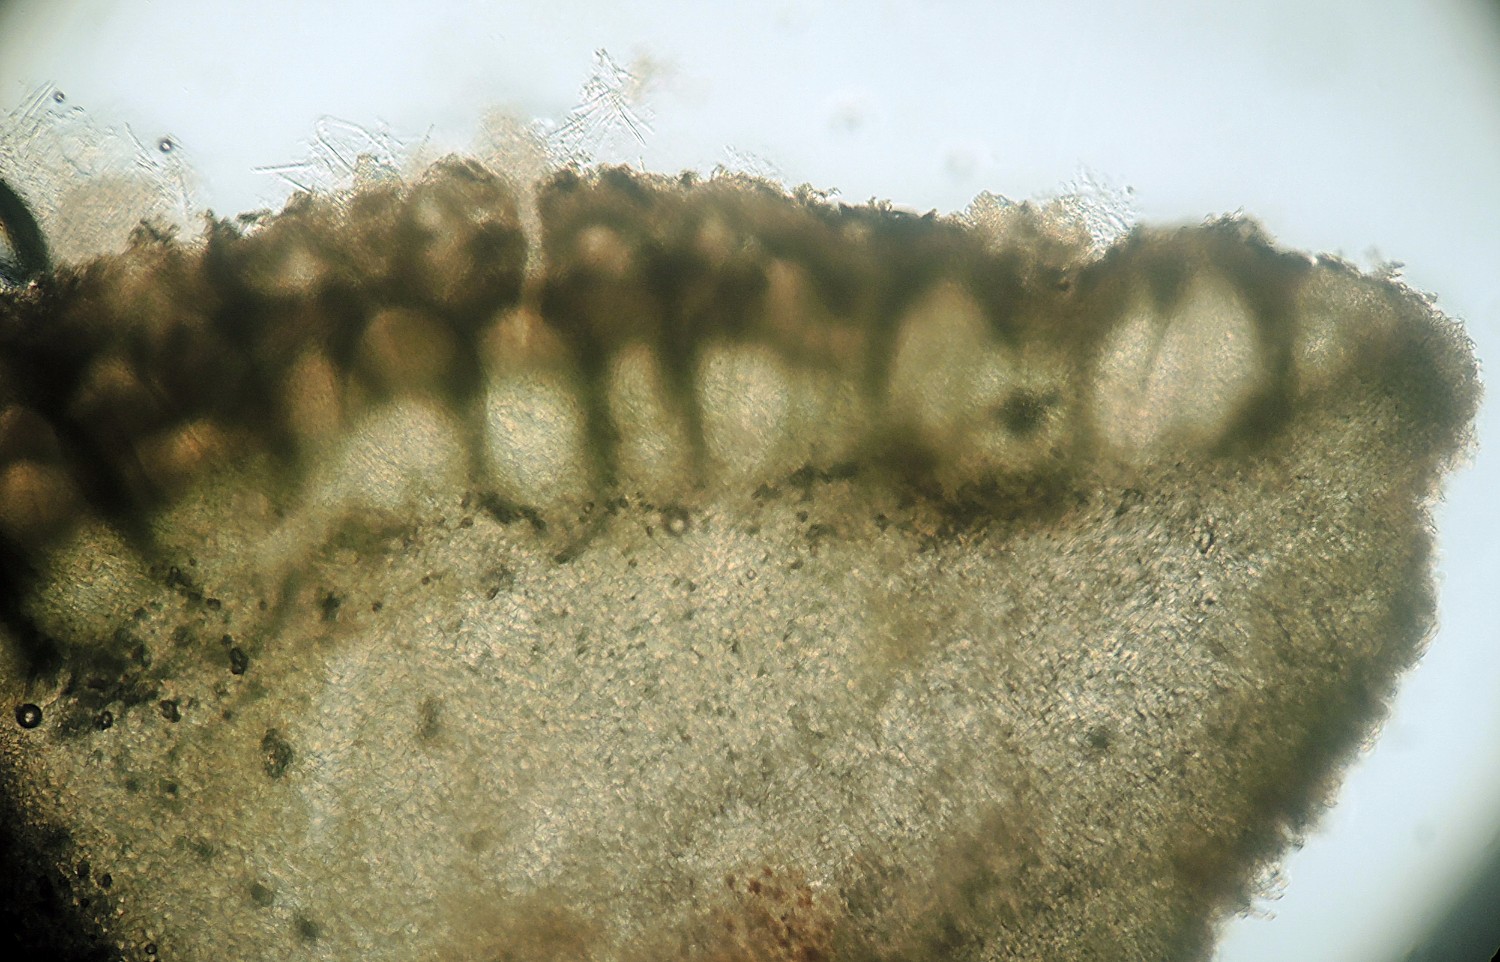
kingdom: Fungi
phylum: Ascomycota
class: Sordariomycetes
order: Hypocreales
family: Hypocreaceae
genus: Trichoderma
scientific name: Trichoderma atrobrunneum
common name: grønsort kødkerne
